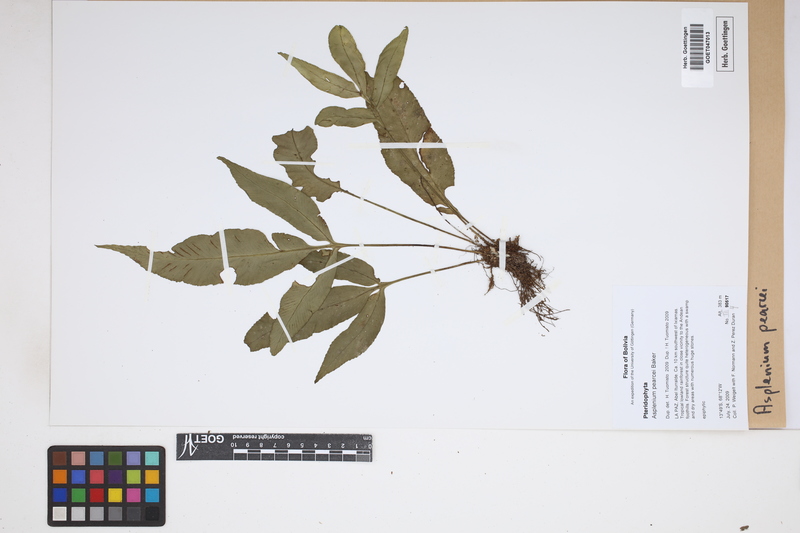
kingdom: Plantae
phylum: Tracheophyta
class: Polypodiopsida
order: Polypodiales
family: Aspleniaceae
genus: Asplenium
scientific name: Asplenium pearcei
